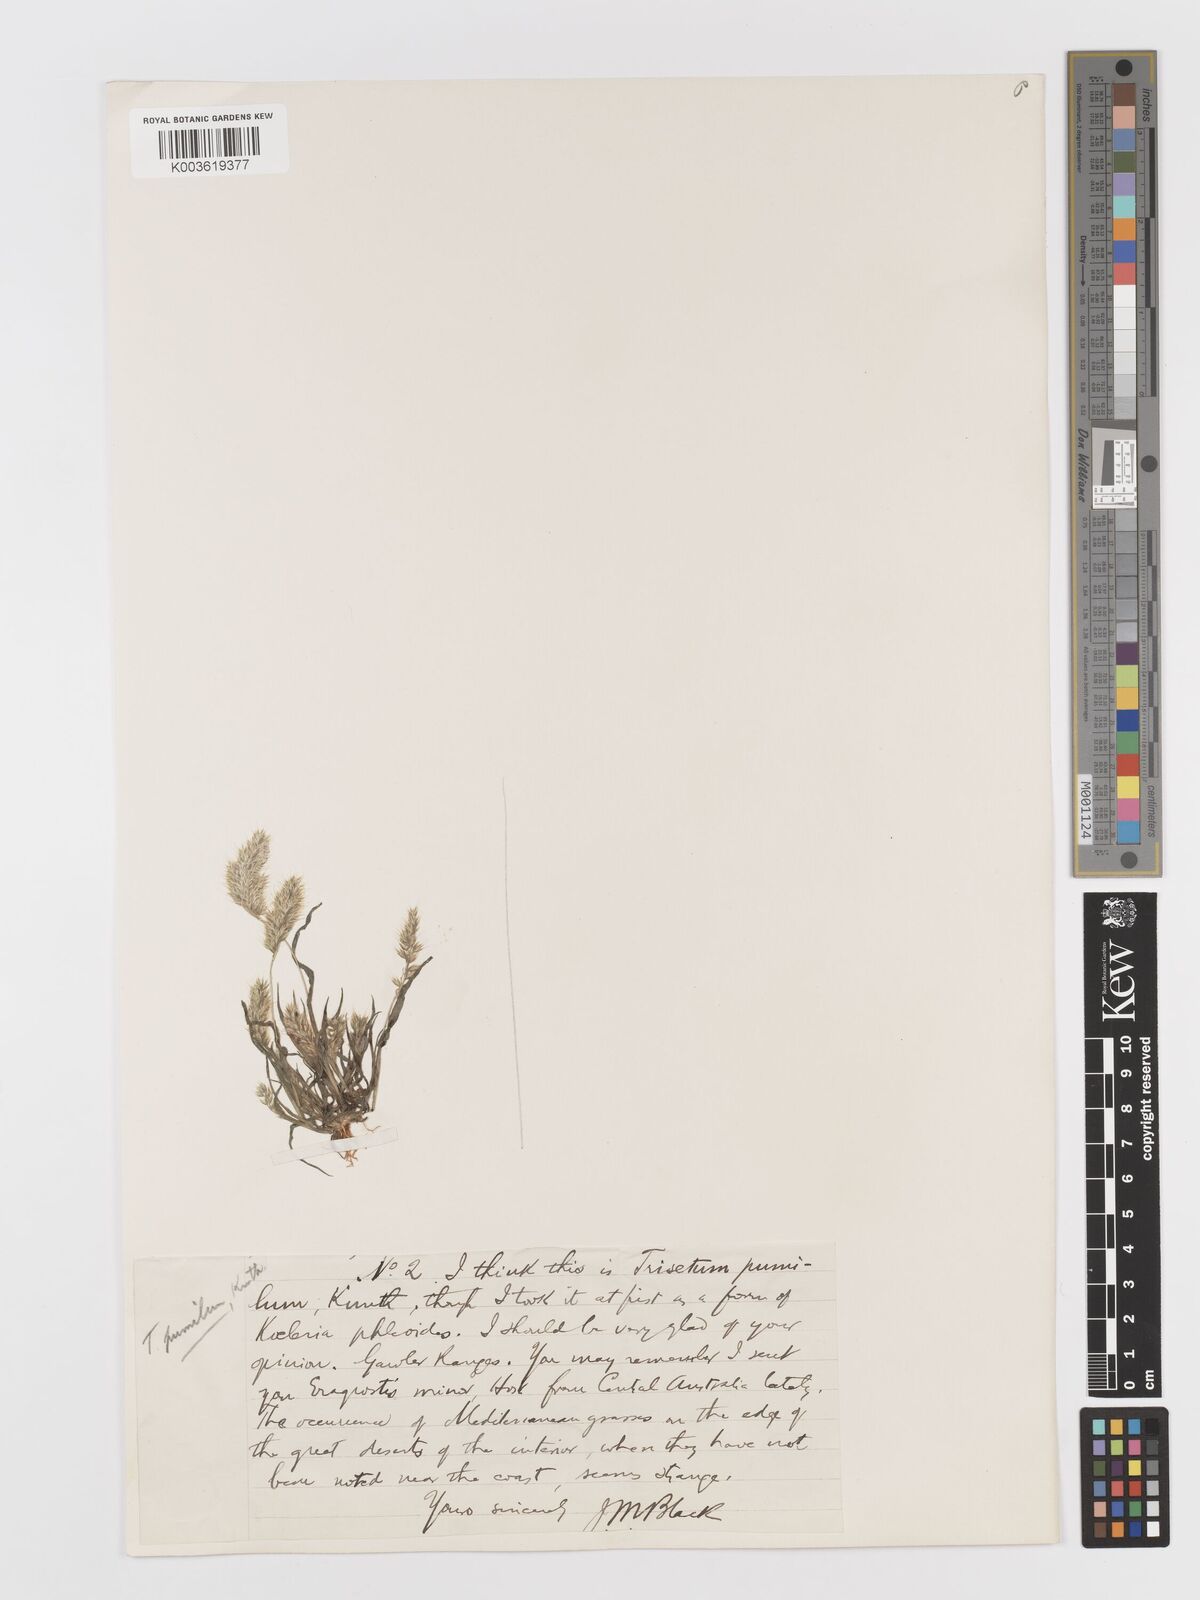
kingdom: Plantae
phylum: Tracheophyta
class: Liliopsida
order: Poales
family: Poaceae
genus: Rostraria
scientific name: Rostraria pumila
